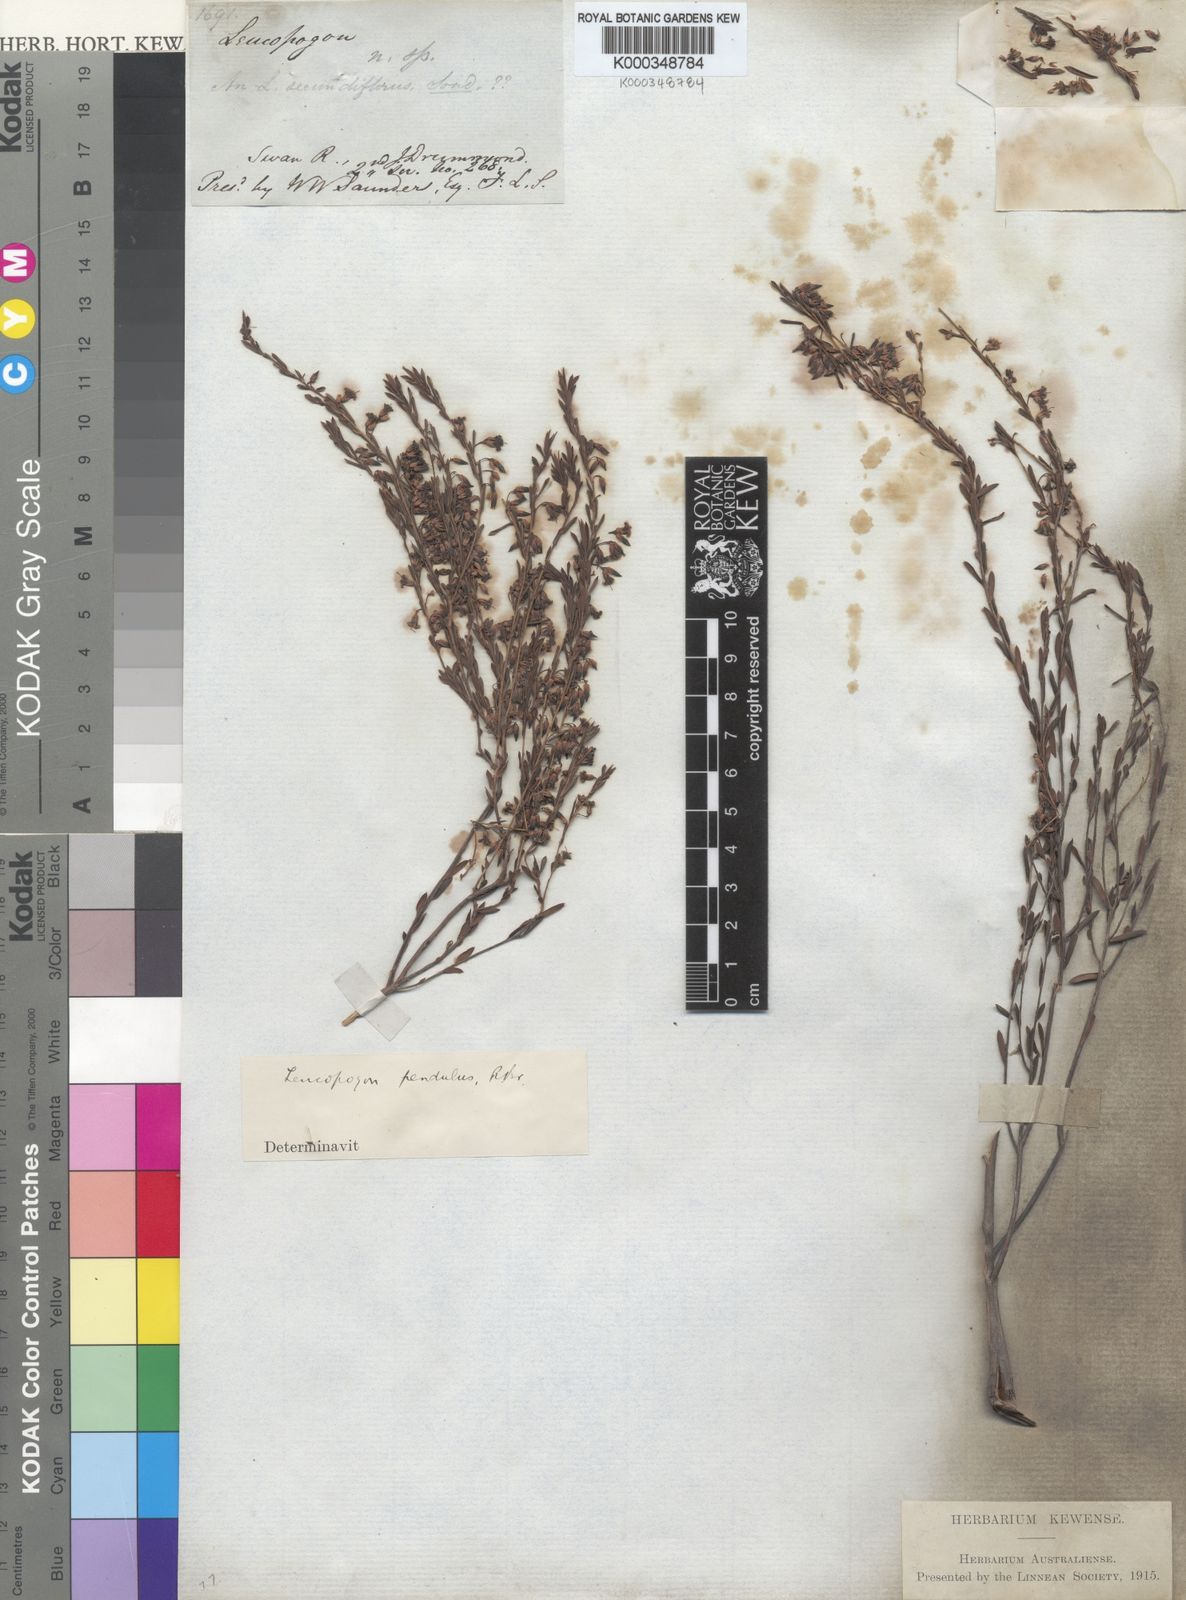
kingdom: Plantae
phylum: Tracheophyta
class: Magnoliopsida
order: Ericales
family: Ericaceae
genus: Styphelia
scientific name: Styphelia pendula
